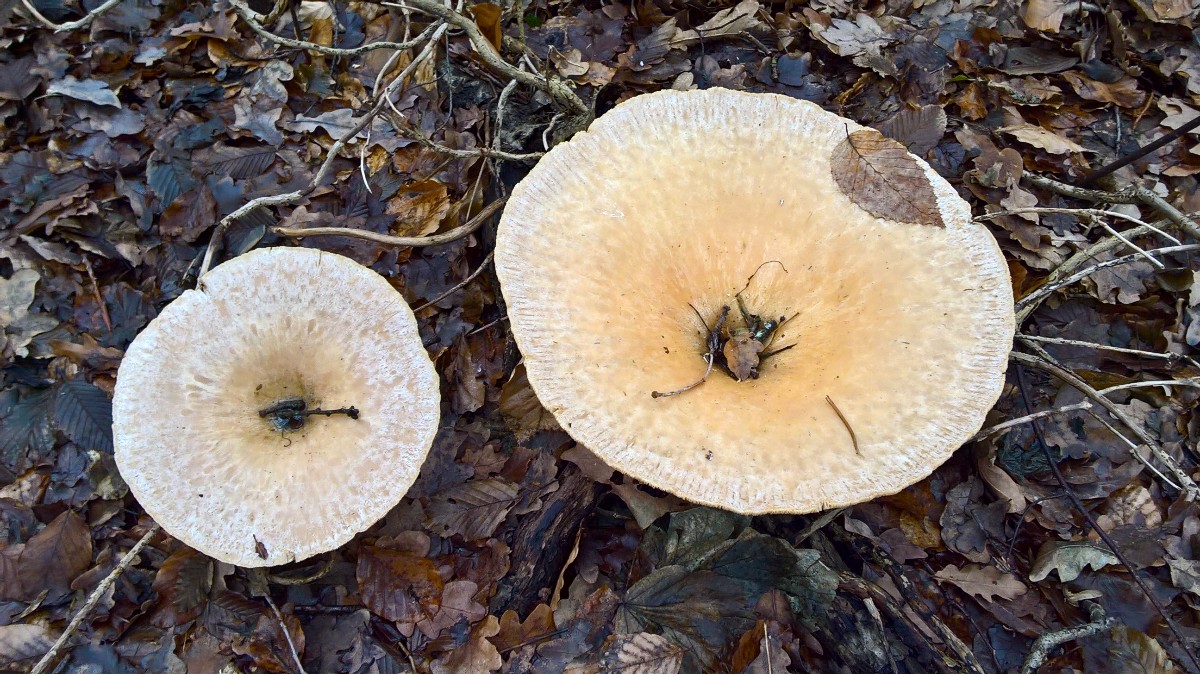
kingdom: Fungi
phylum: Basidiomycota
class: Agaricomycetes
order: Agaricales
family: Tricholomataceae
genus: Infundibulicybe
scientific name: Infundibulicybe geotropa
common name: stor tragthat
